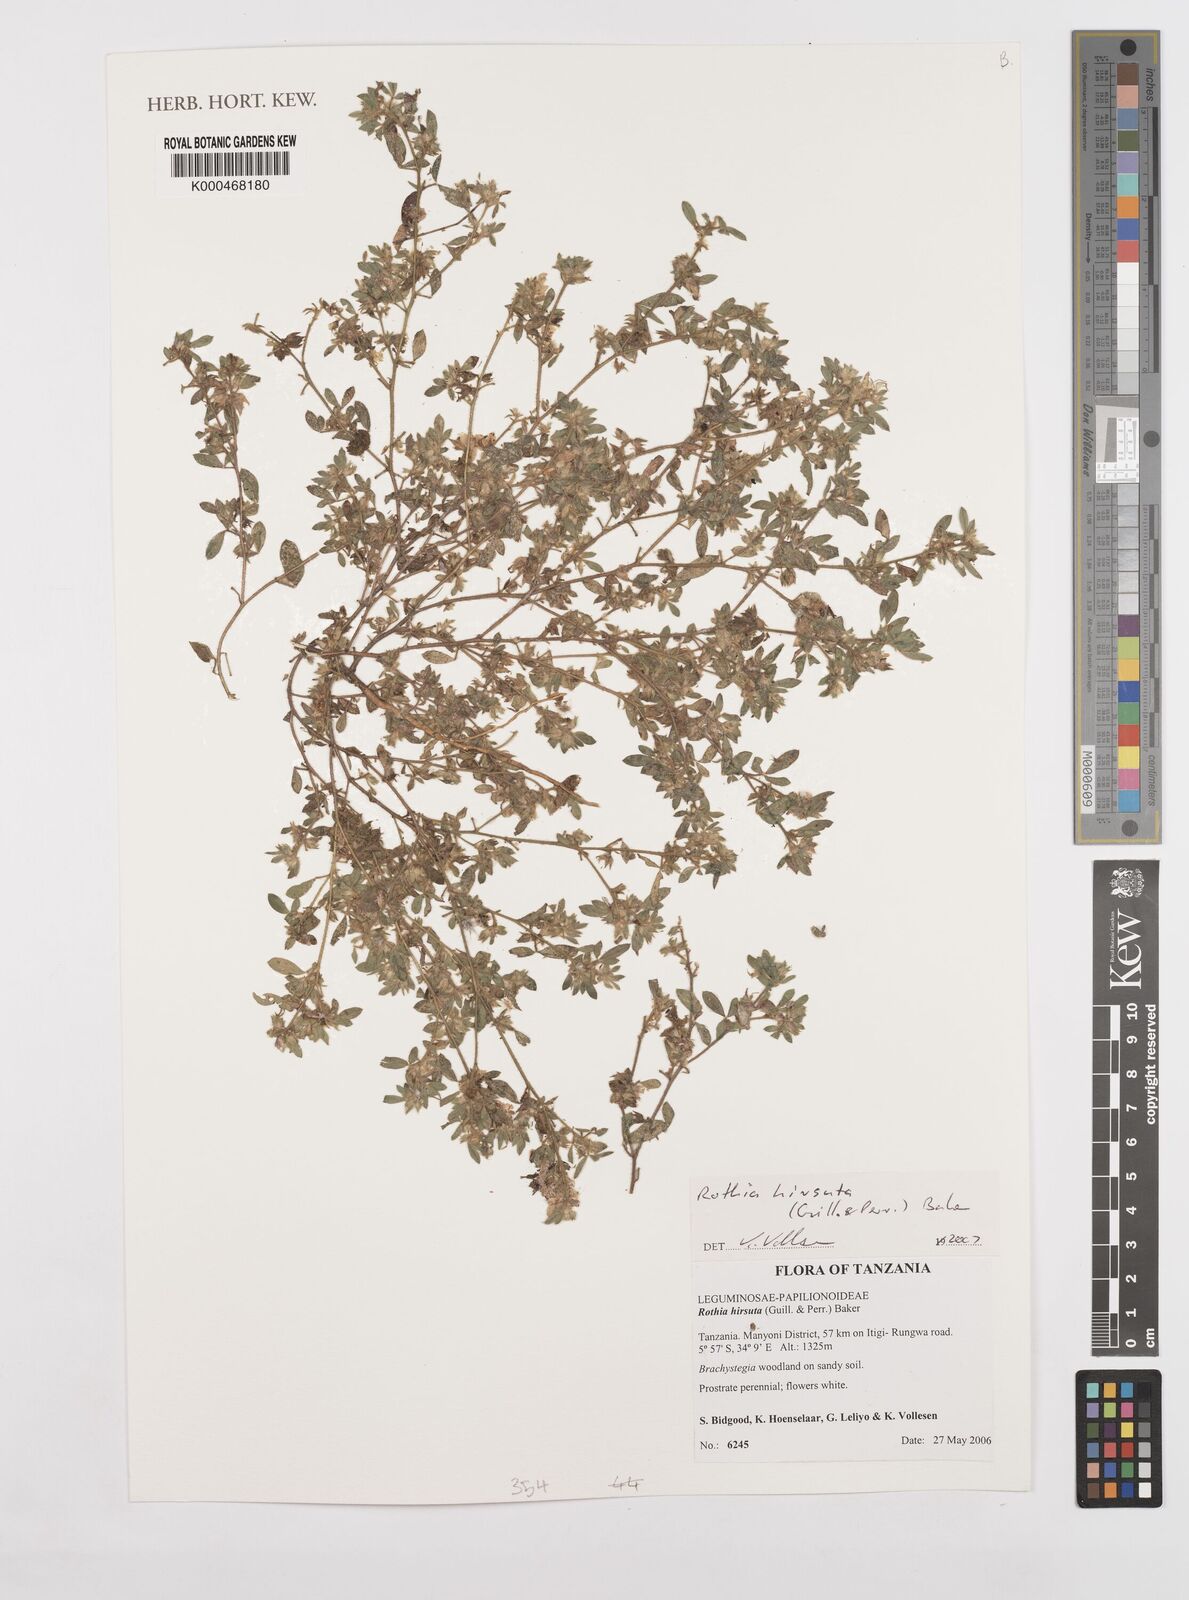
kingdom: Plantae
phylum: Tracheophyta
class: Magnoliopsida
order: Fabales
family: Fabaceae
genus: Rothia
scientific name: Rothia hirsuta
